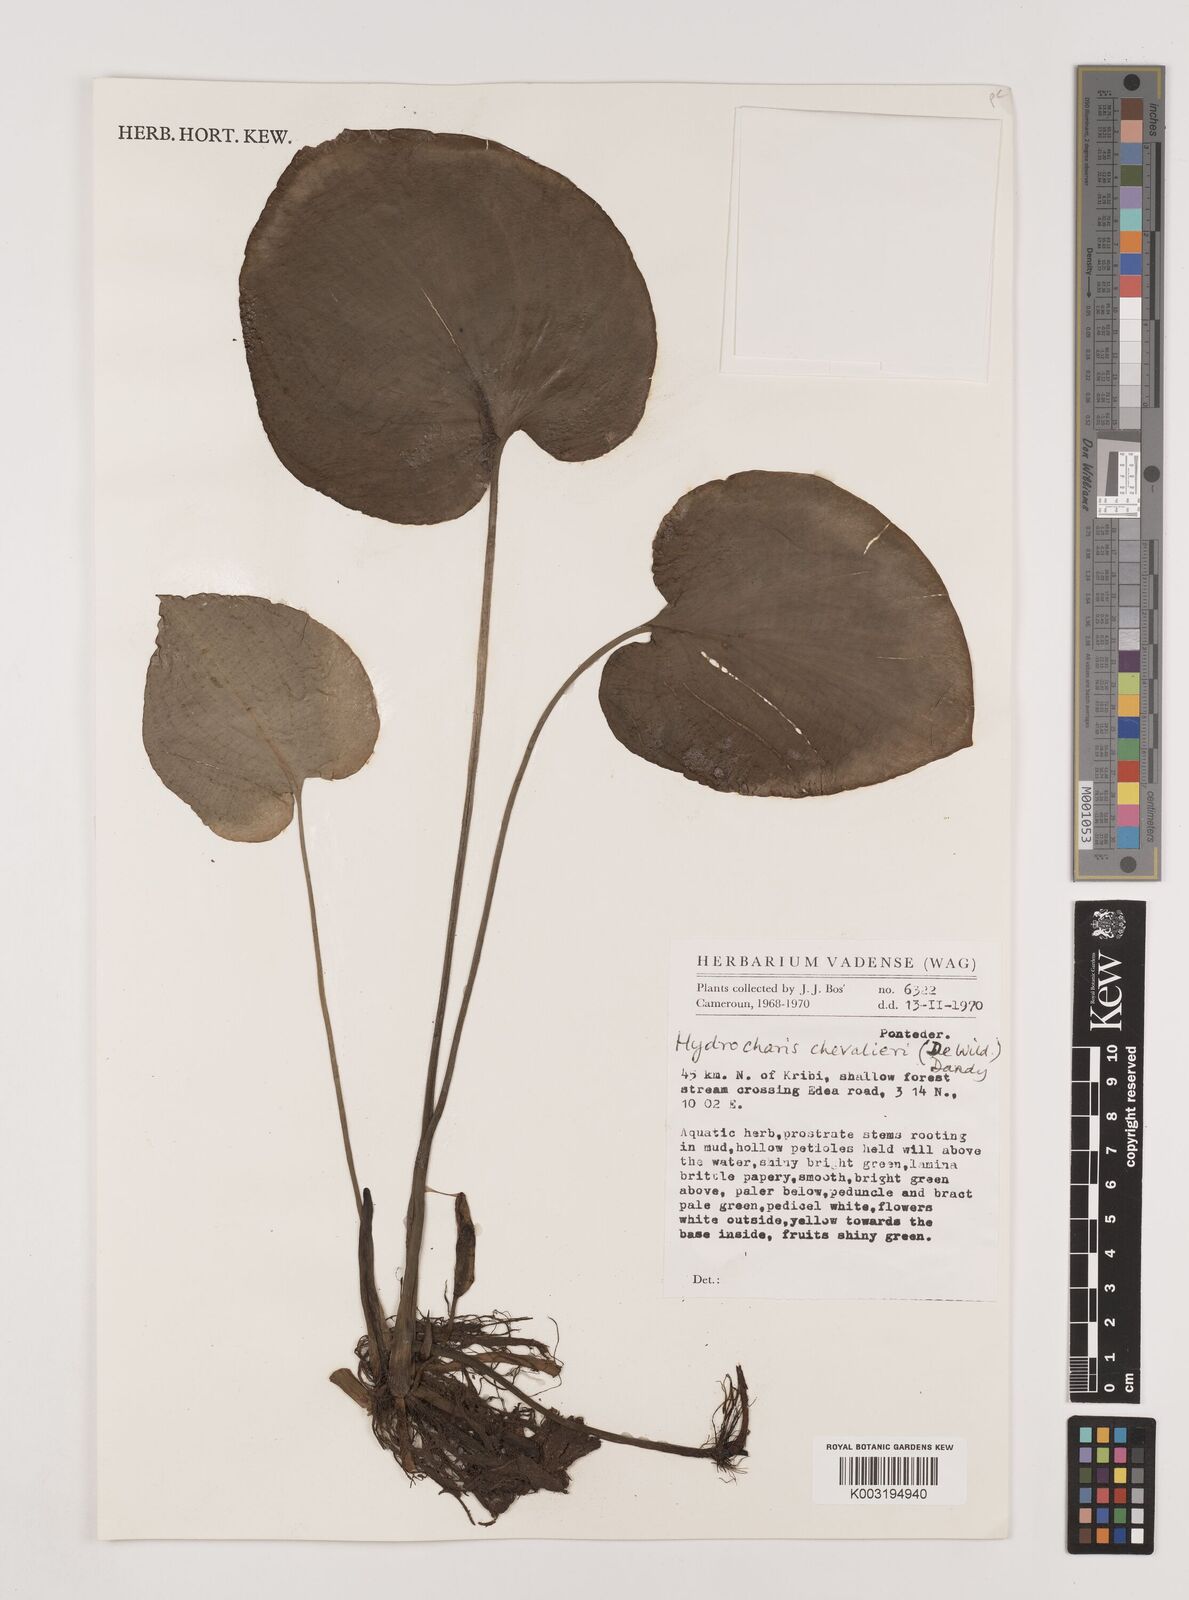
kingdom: Plantae
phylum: Tracheophyta
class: Liliopsida
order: Alismatales
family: Hydrocharitaceae
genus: Hydrocharis
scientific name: Hydrocharis chevalieri
